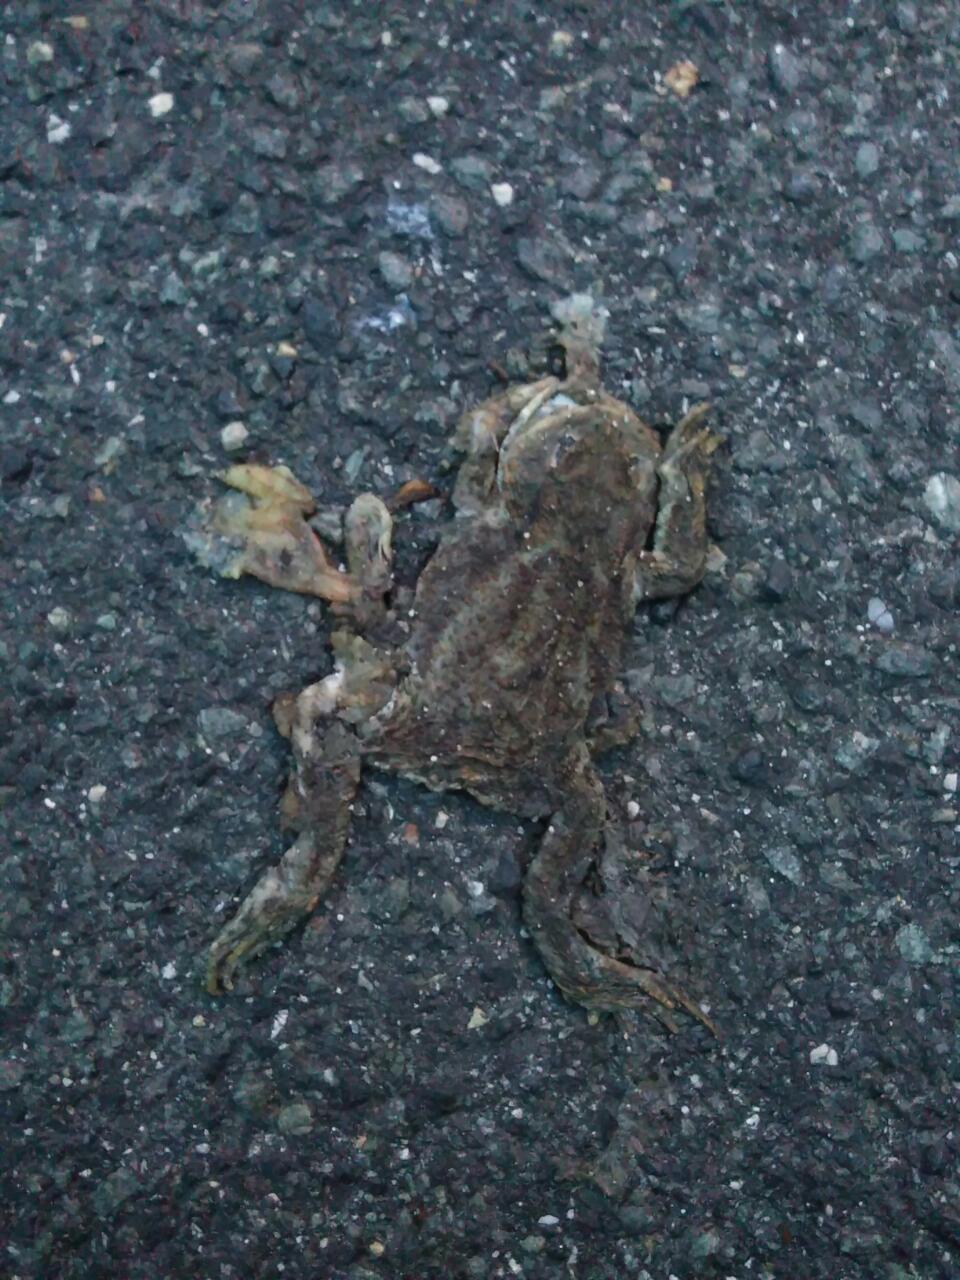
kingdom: Animalia
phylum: Chordata
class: Amphibia
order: Anura
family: Bufonidae
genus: Bufo
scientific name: Bufo bufo
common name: Common toad
